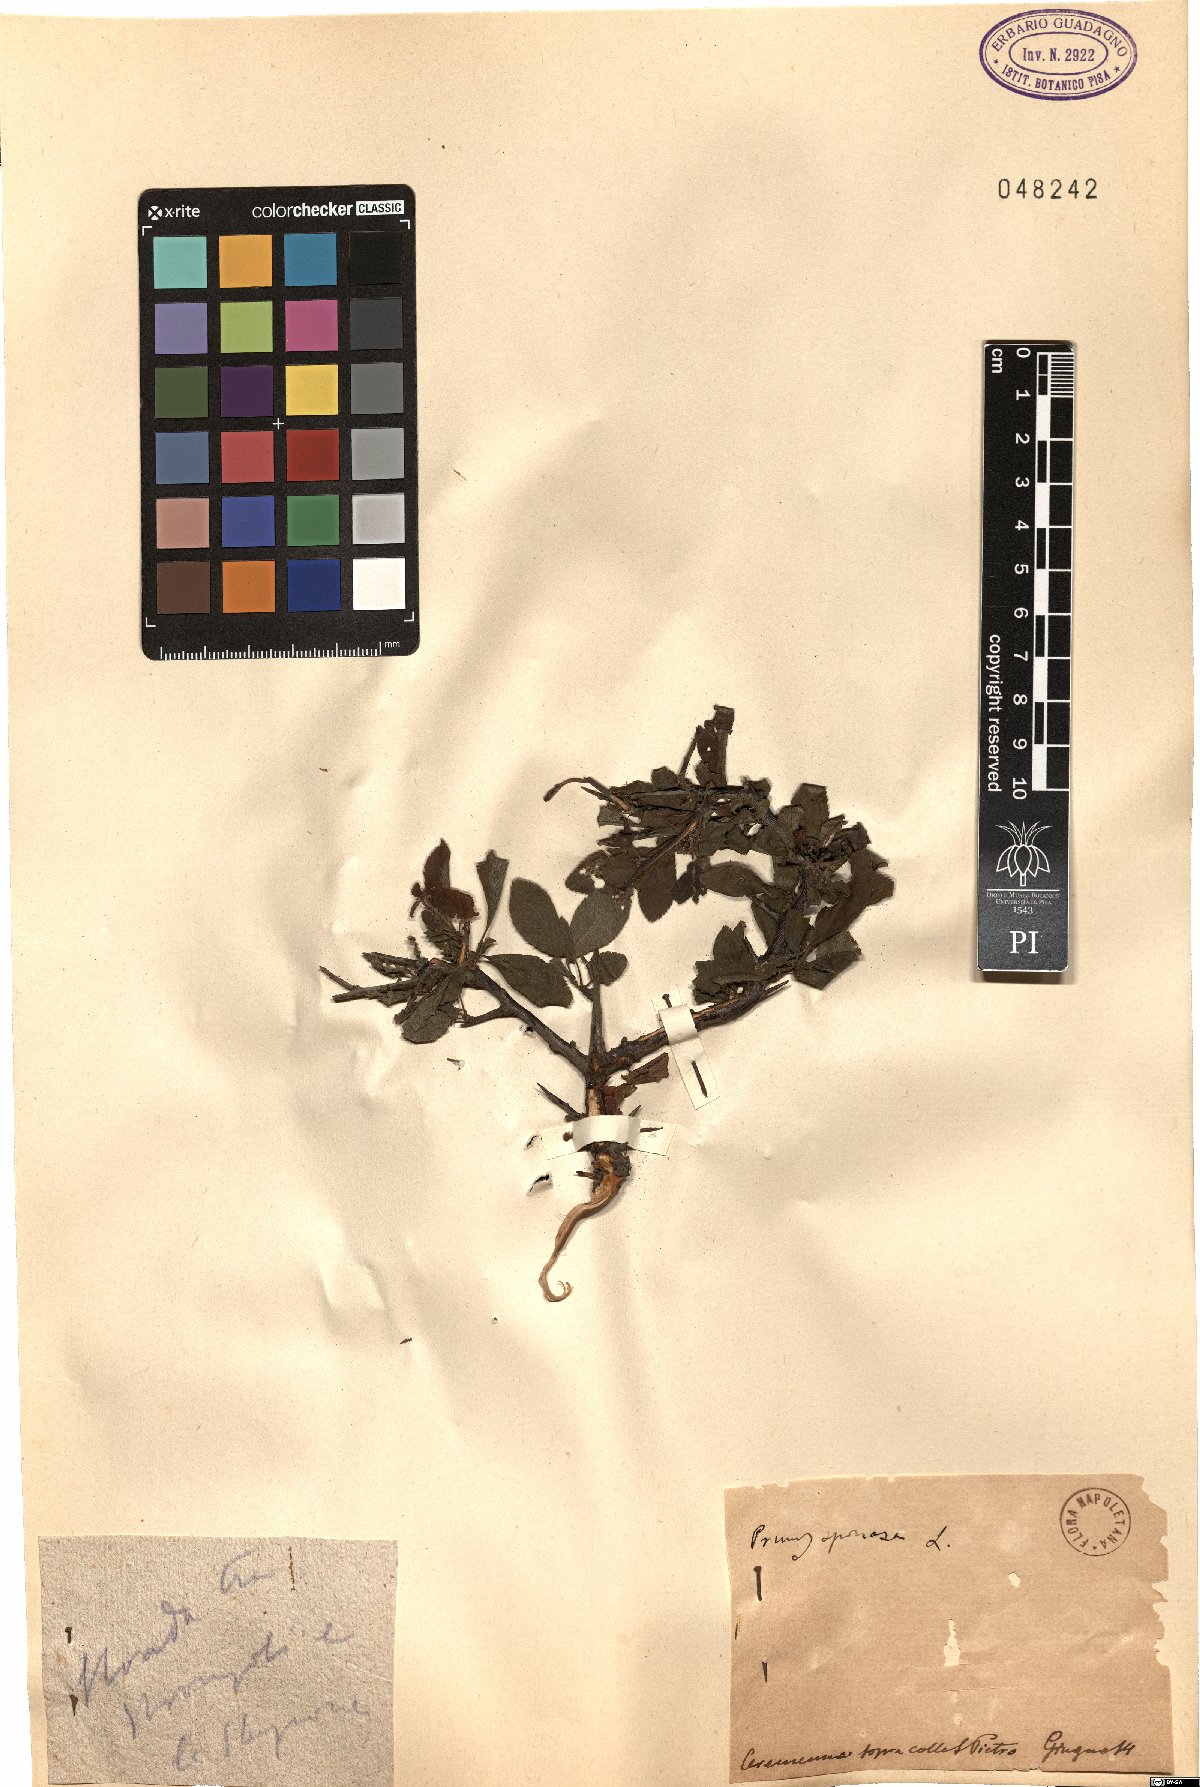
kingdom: Plantae
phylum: Tracheophyta
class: Magnoliopsida
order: Rosales
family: Rosaceae
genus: Prunus
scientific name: Prunus spinosa
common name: Blackthorn
